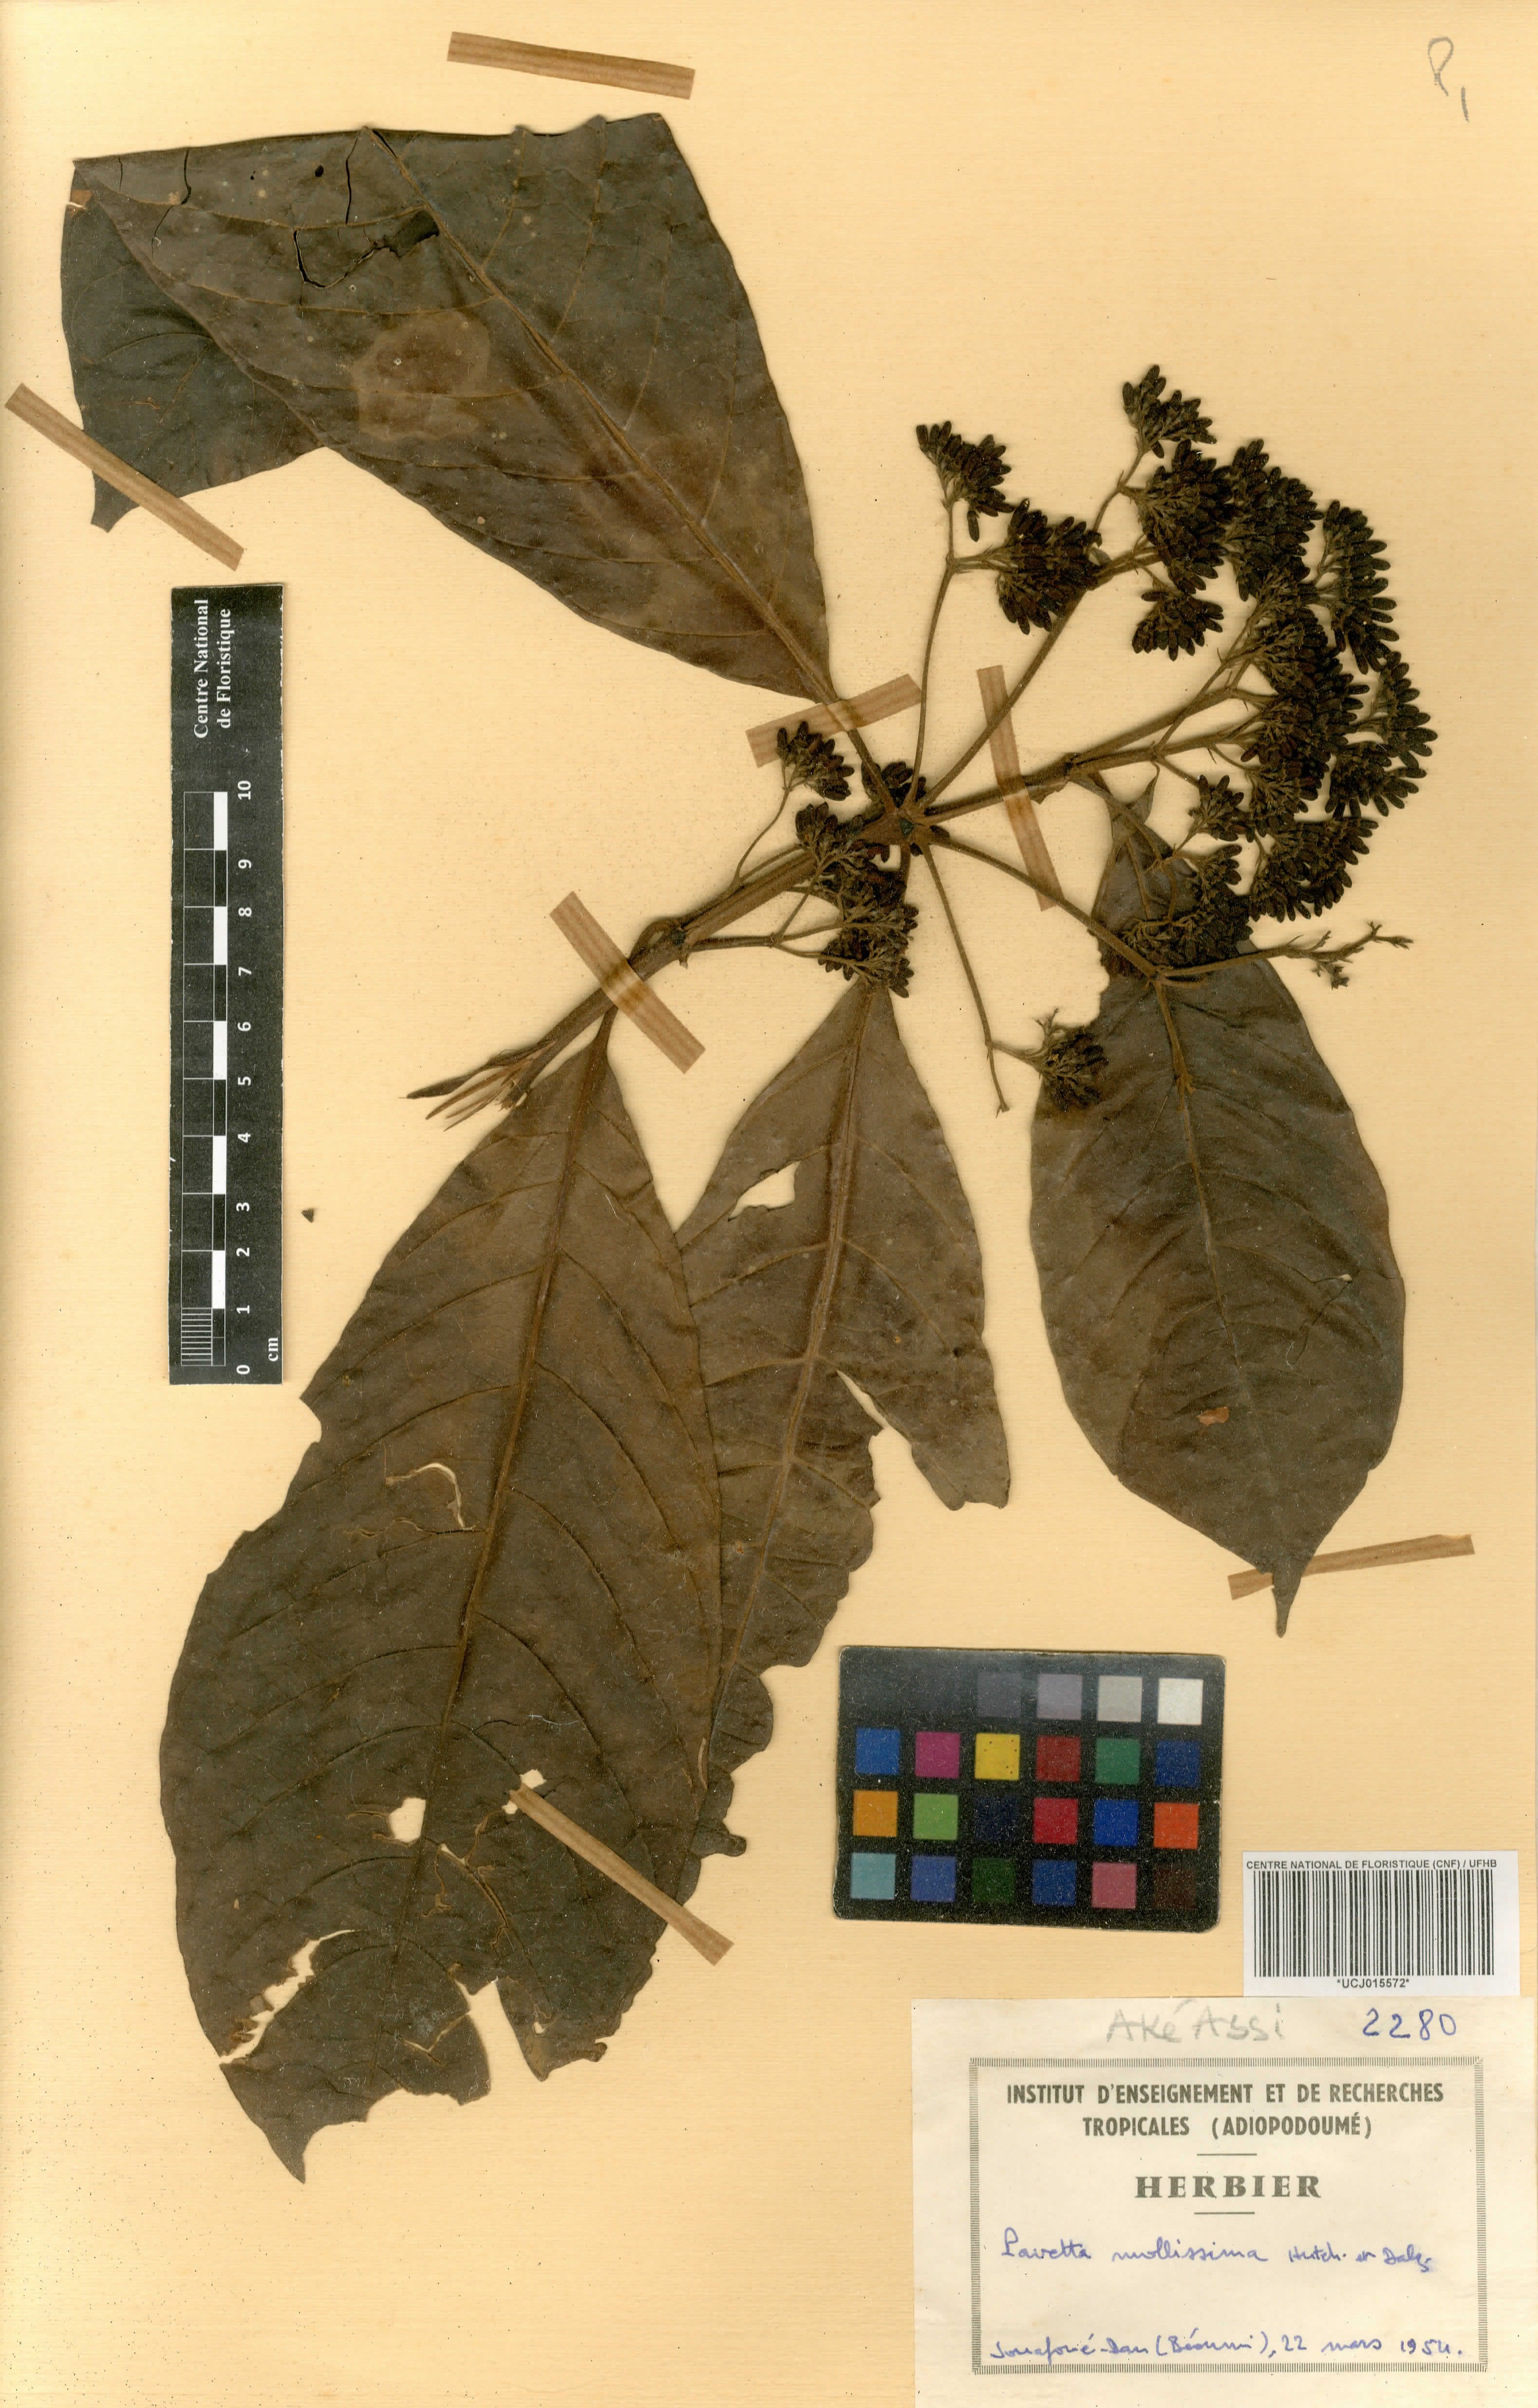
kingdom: Plantae
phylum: Tracheophyta
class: Magnoliopsida
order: Gentianales
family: Rubiaceae
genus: Pavetta
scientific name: Pavetta mollissima
